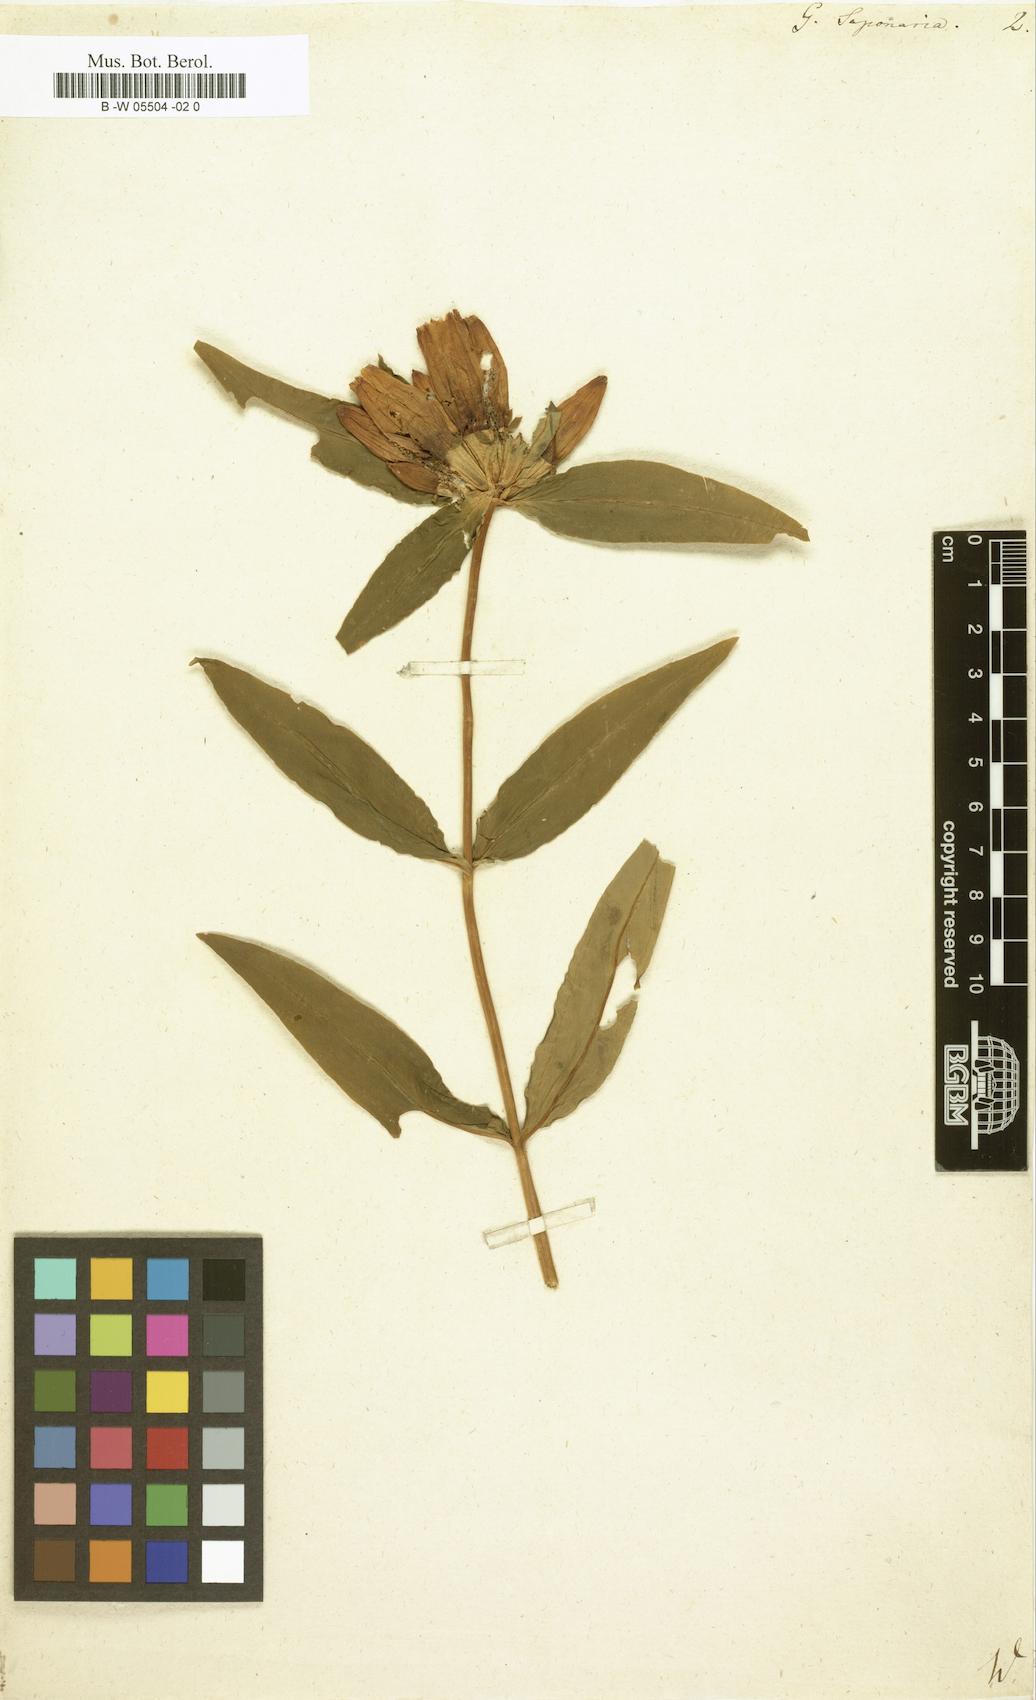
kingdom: Plantae
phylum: Tracheophyta
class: Magnoliopsida
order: Gentianales
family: Gentianaceae
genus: Gentiana
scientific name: Gentiana saponaria
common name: Soapwort gentian
